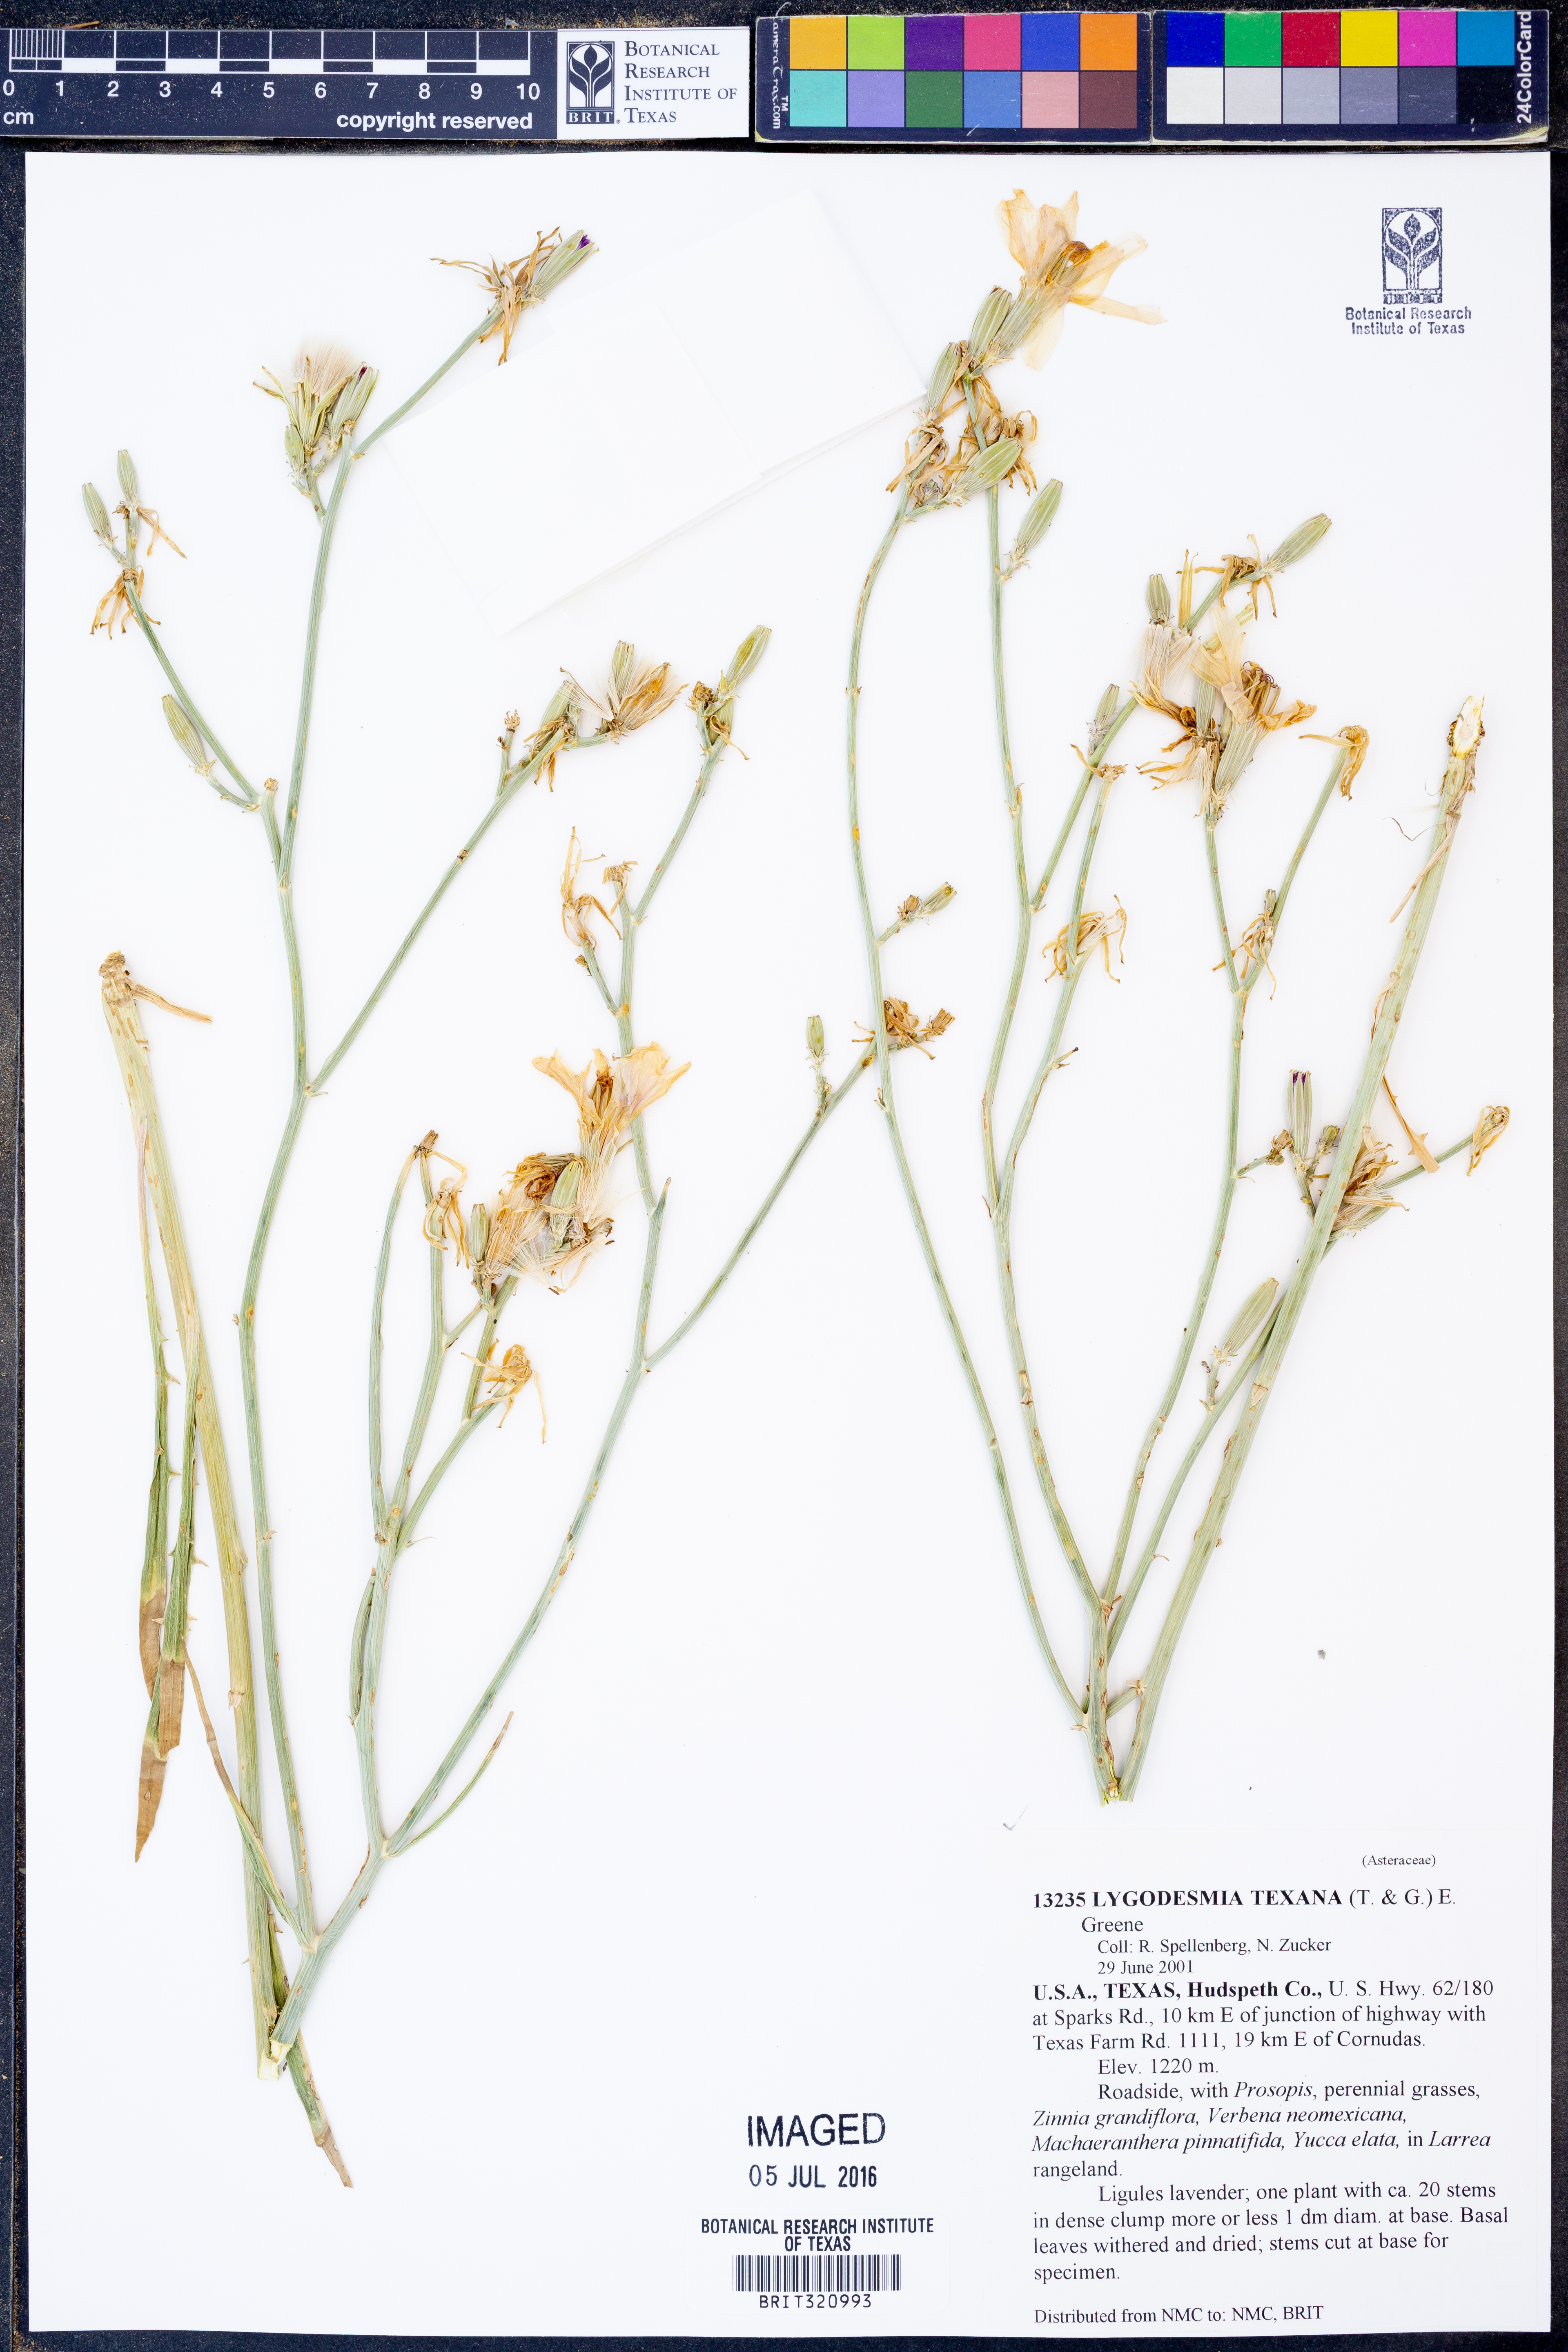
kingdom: Plantae
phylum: Tracheophyta
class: Magnoliopsida
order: Asterales
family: Asteraceae
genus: Lygodesmia
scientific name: Lygodesmia texana
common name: Texas skeleton-plant
